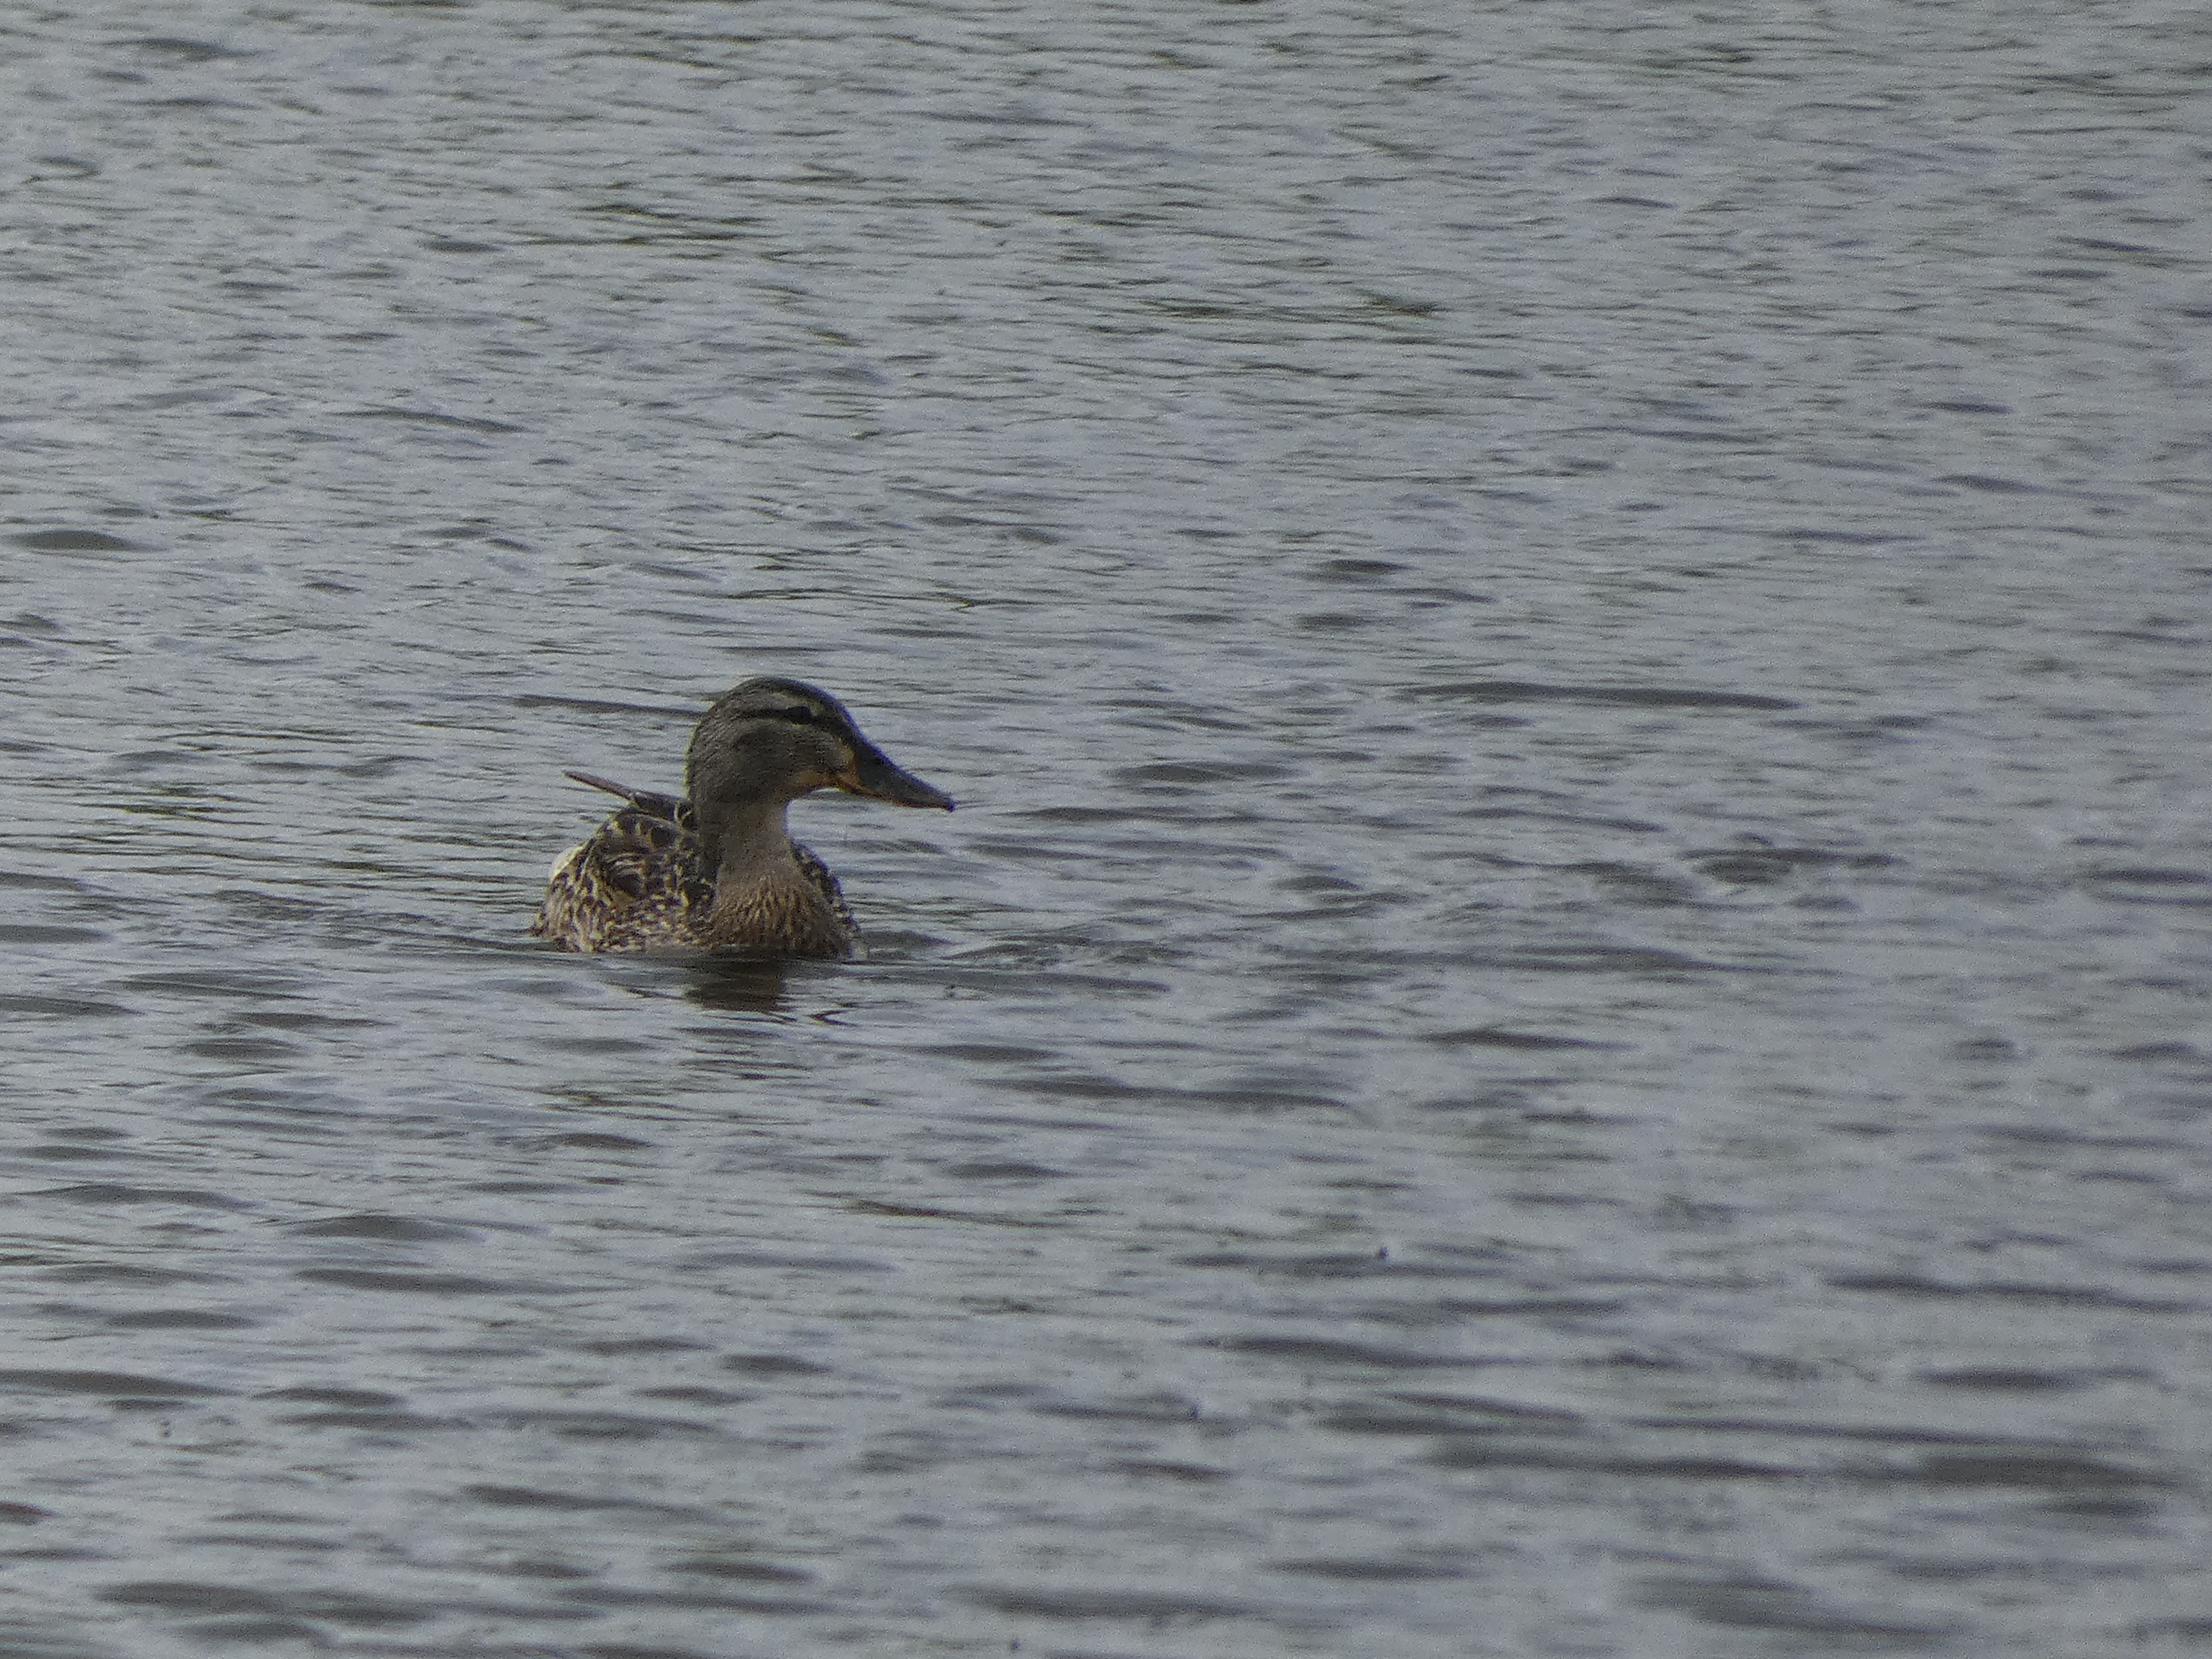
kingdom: Animalia
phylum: Chordata
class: Aves
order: Anseriformes
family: Anatidae
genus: Anas
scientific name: Anas platyrhynchos
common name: Gråand
